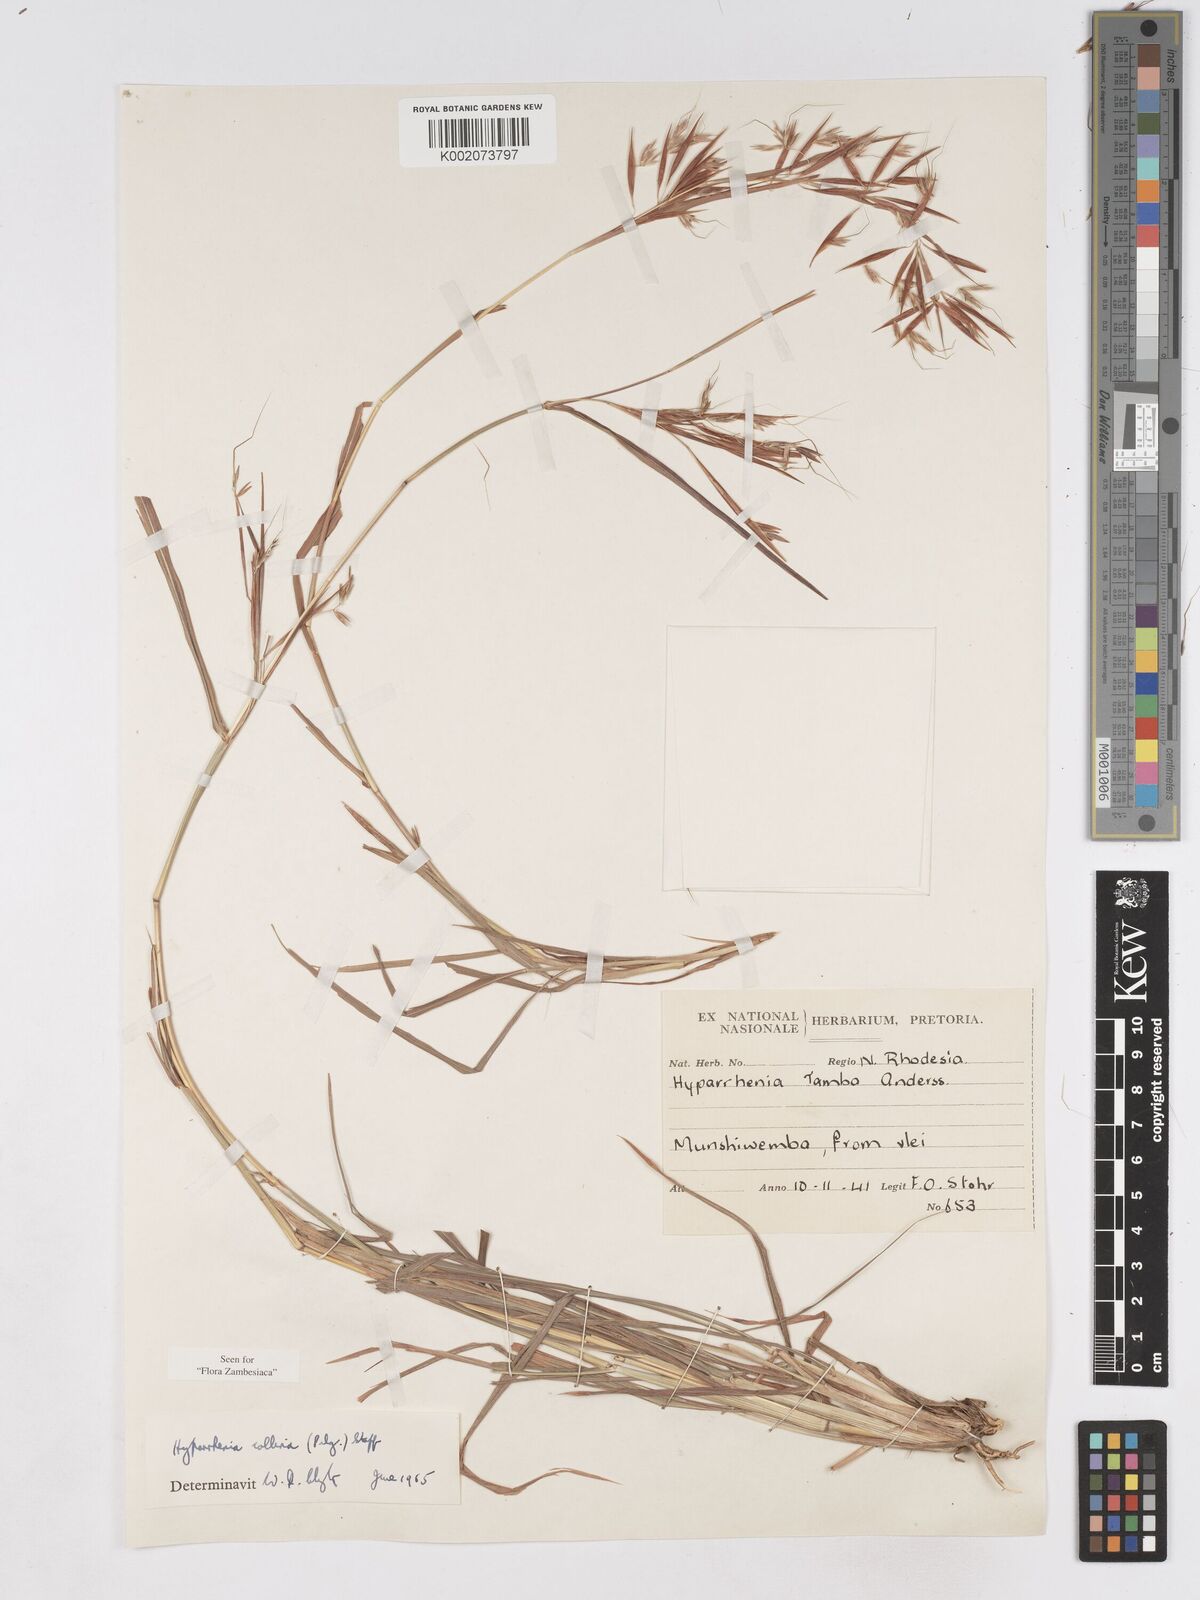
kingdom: Plantae
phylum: Tracheophyta
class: Liliopsida
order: Poales
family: Poaceae
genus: Hyparrhenia
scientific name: Hyparrhenia collina
